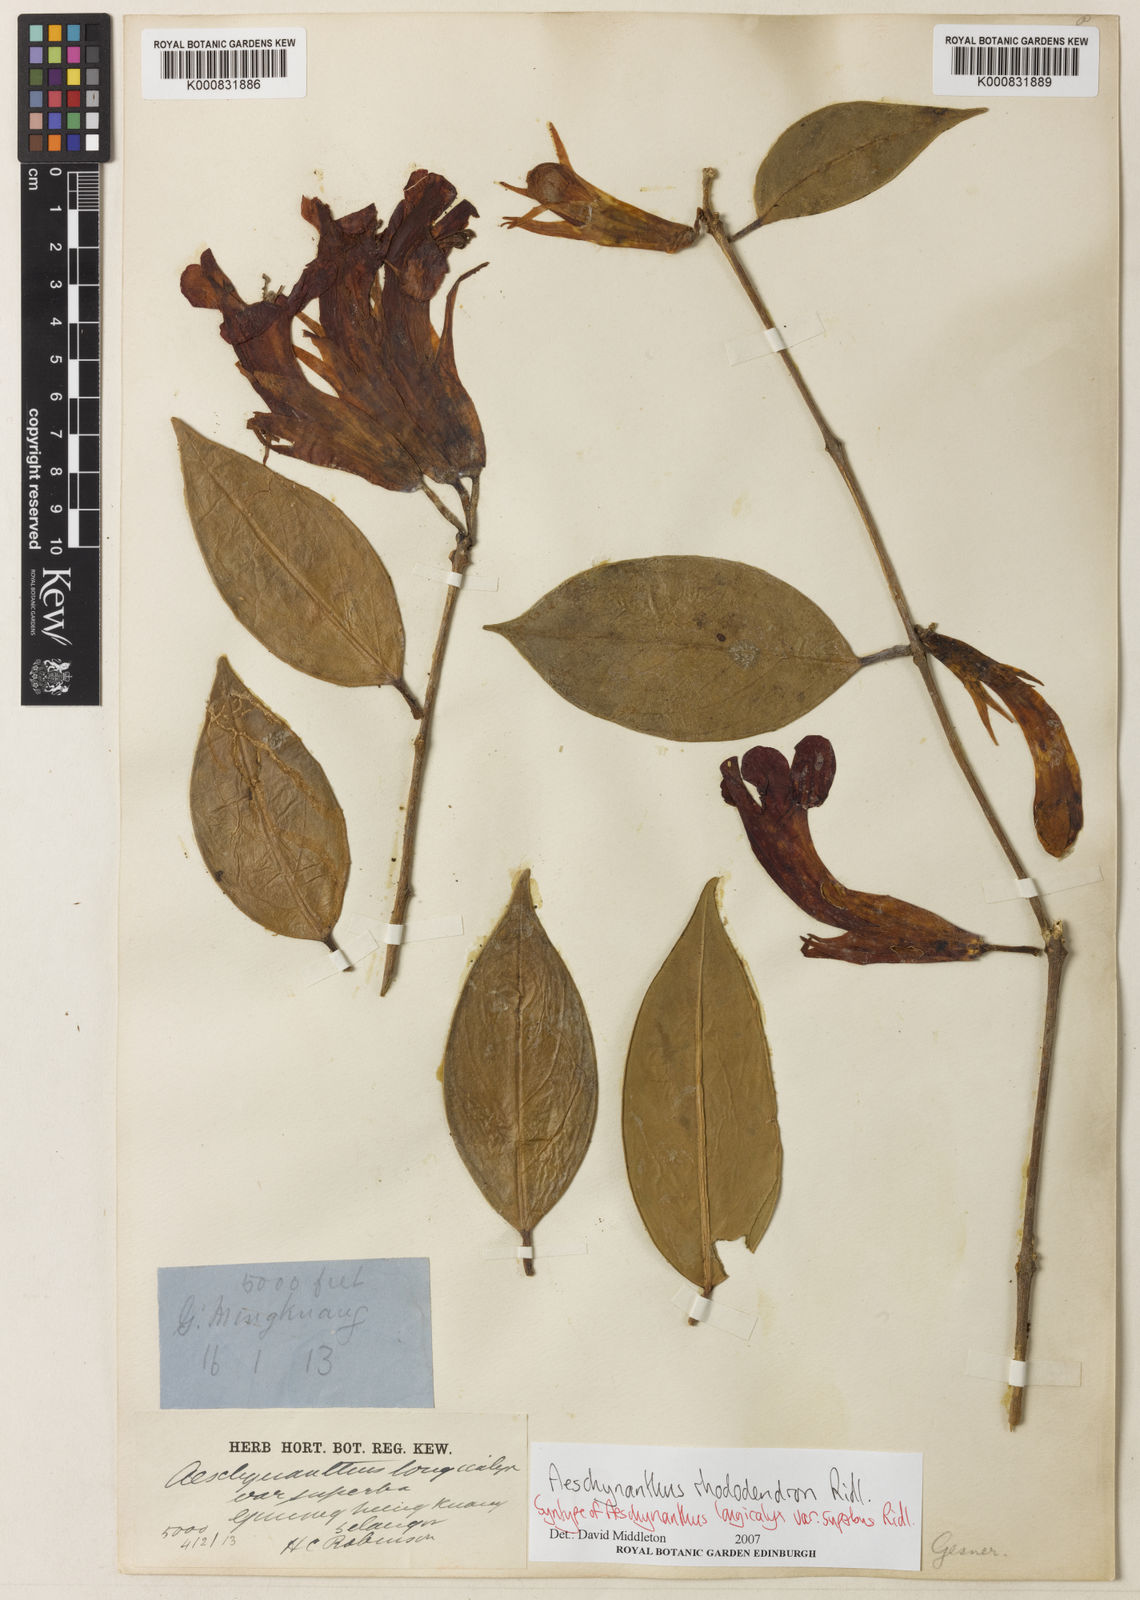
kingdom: Plantae
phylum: Tracheophyta
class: Magnoliopsida
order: Lamiales
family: Gesneriaceae
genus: Aeschynanthus
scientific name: Aeschynanthus rhododendron
